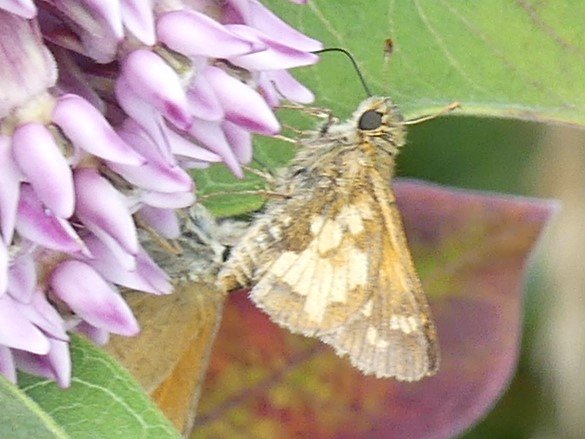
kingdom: Animalia
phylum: Arthropoda
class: Insecta
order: Lepidoptera
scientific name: Lepidoptera
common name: Butterflies
